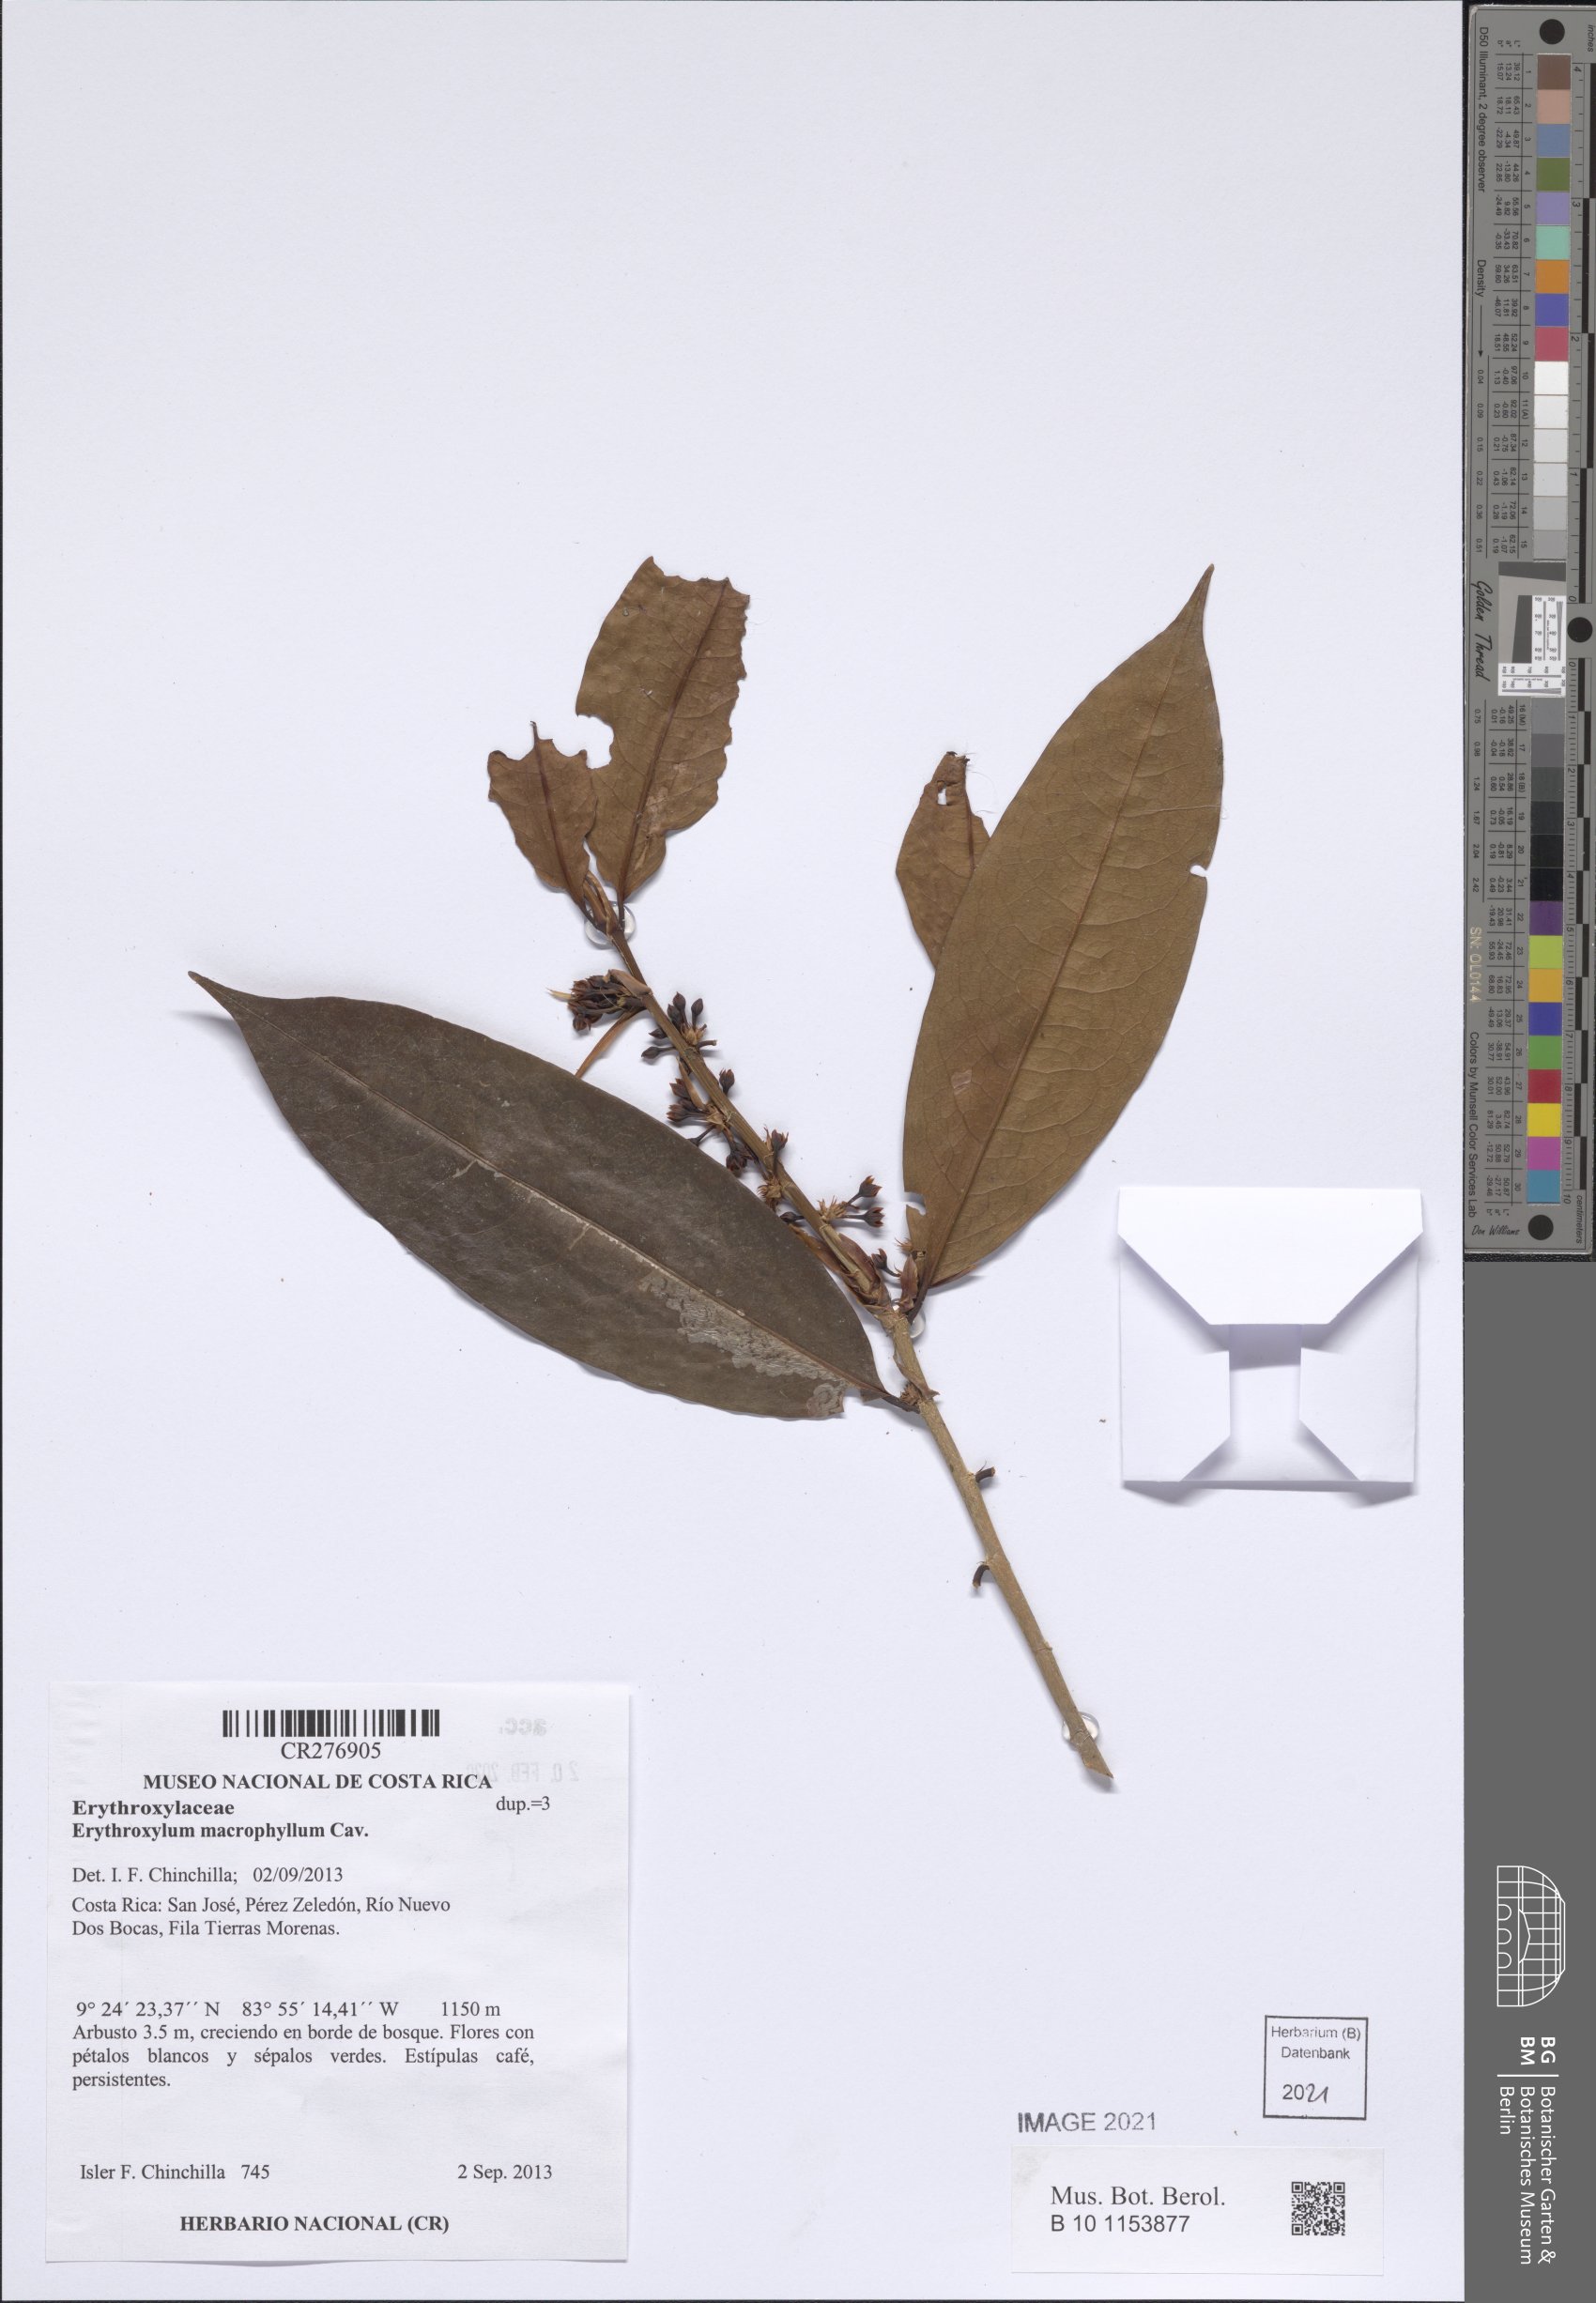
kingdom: Plantae
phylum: Tracheophyta
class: Magnoliopsida
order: Malpighiales
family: Erythroxylaceae
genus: Erythroxylum
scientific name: Erythroxylum macrophyllum
